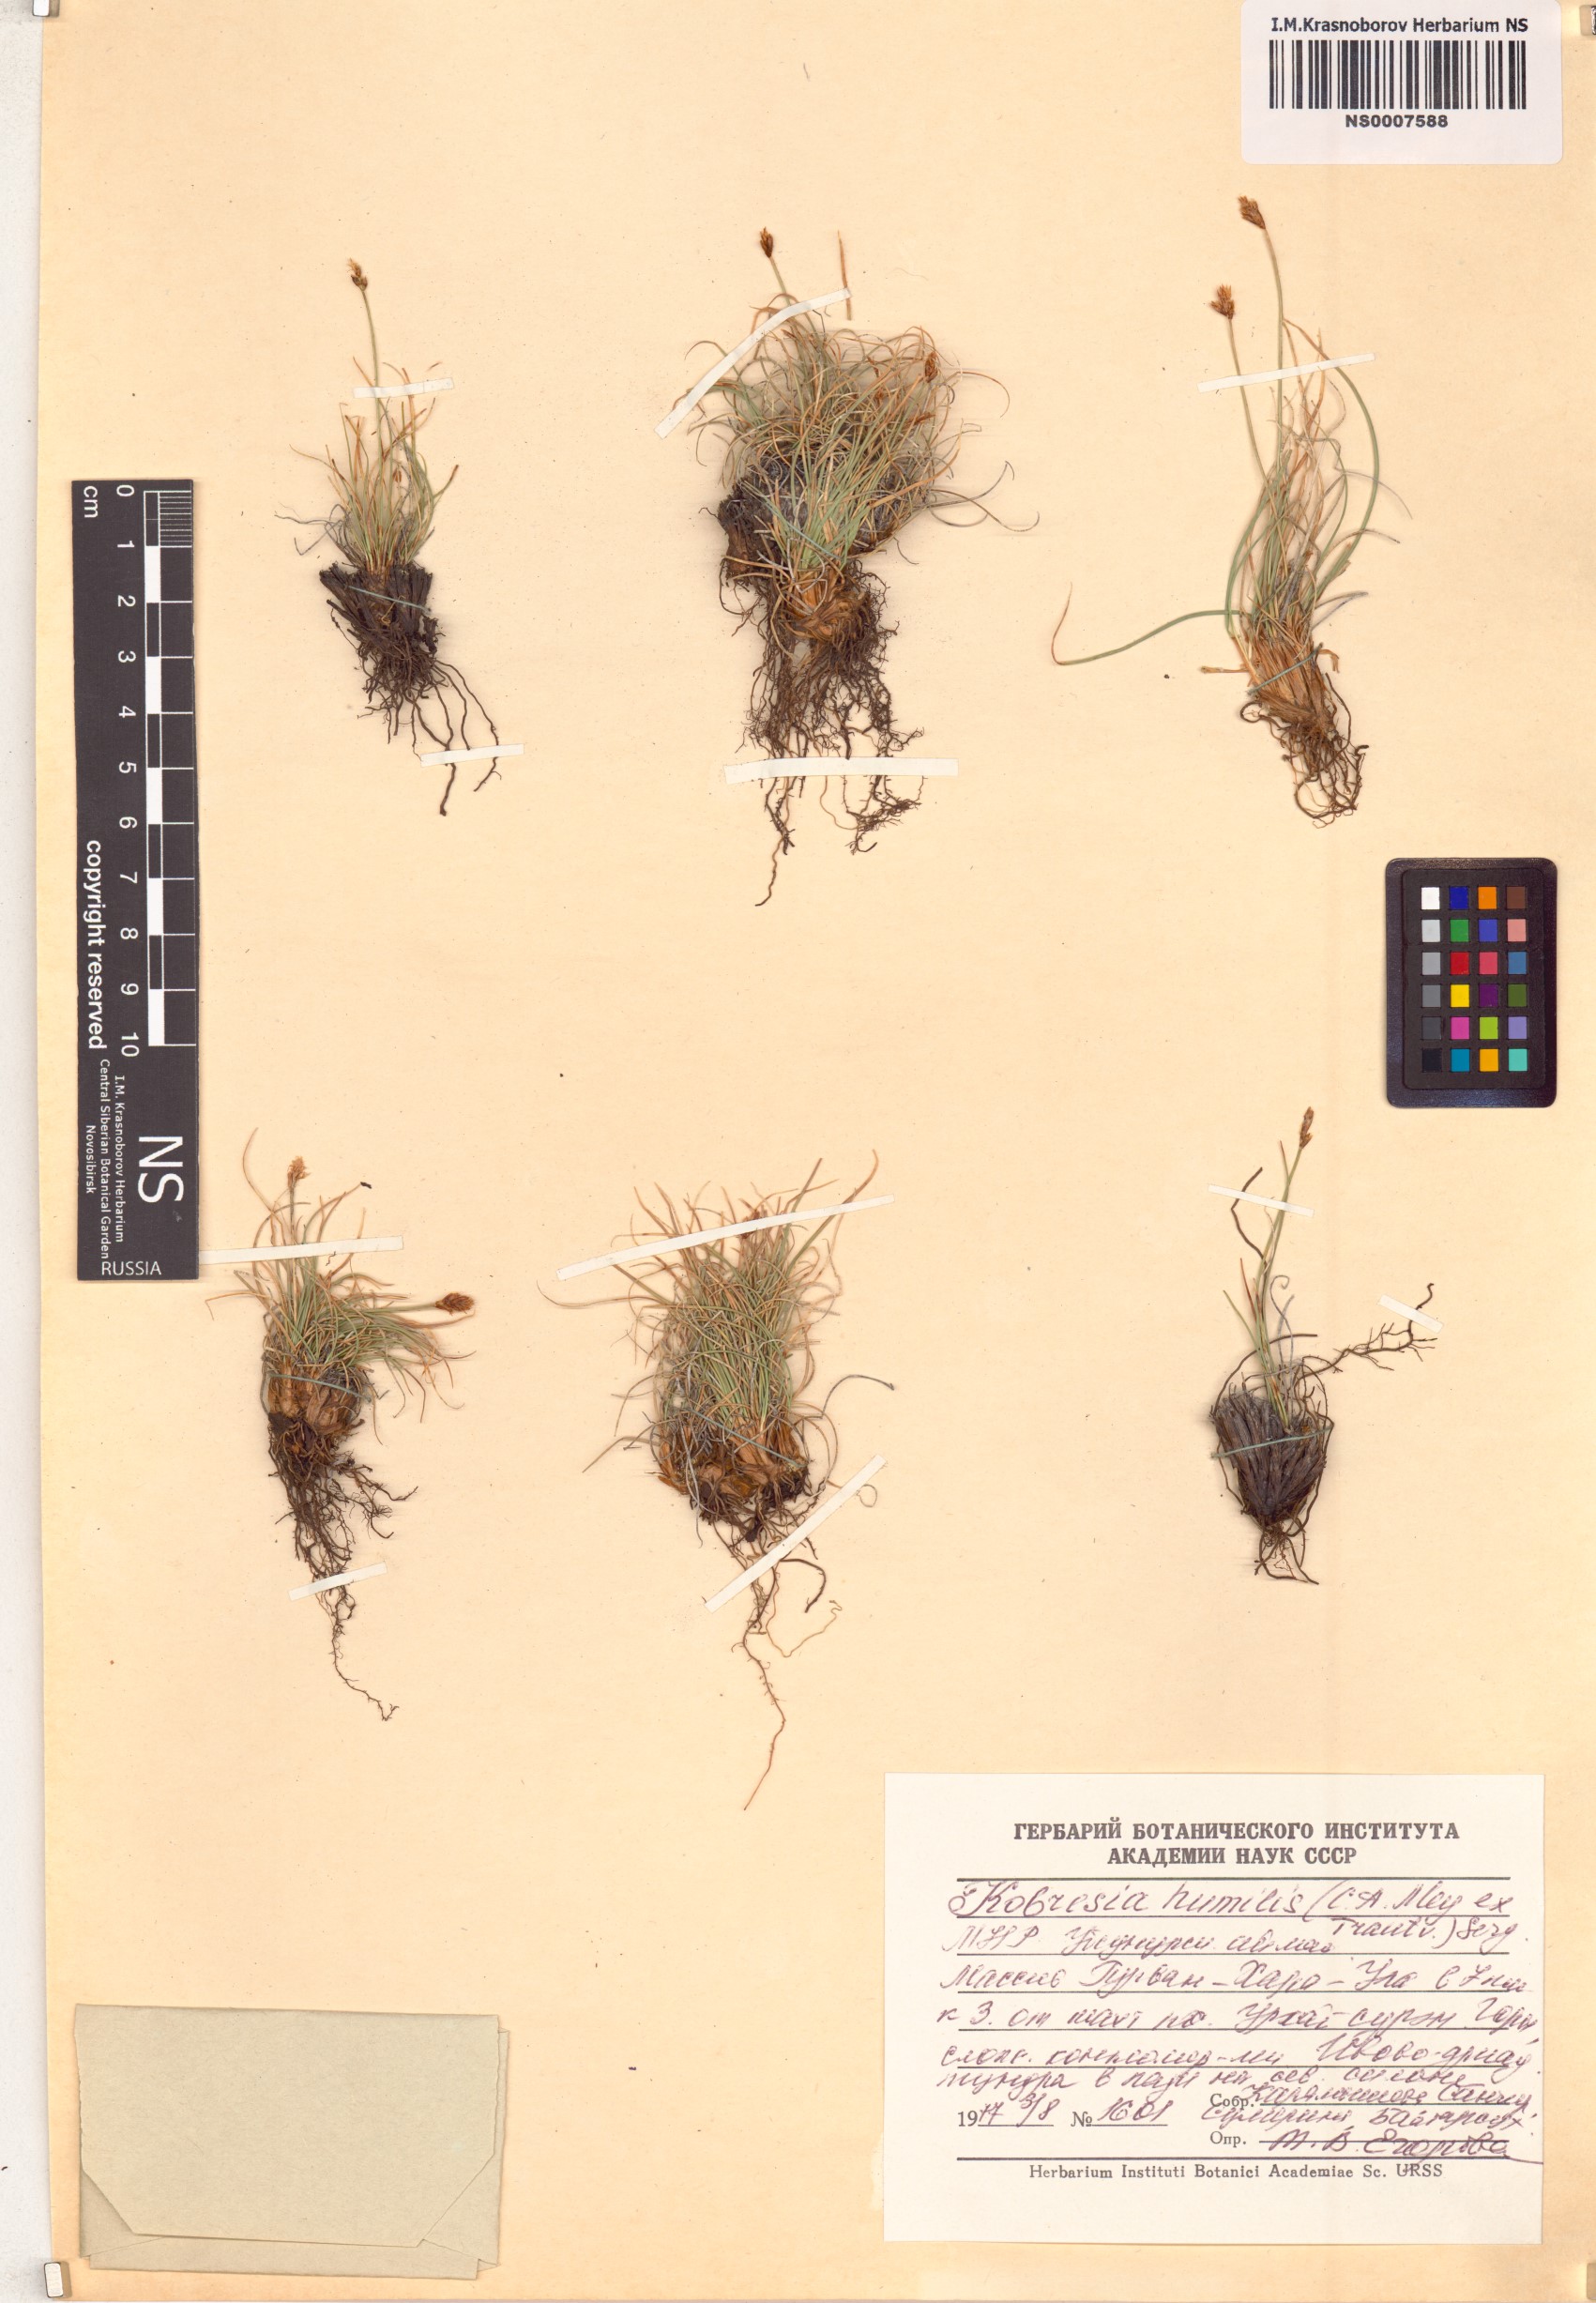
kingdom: Plantae
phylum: Tracheophyta
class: Liliopsida
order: Poales
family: Cyperaceae
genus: Carex
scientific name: Carex alatauensis
